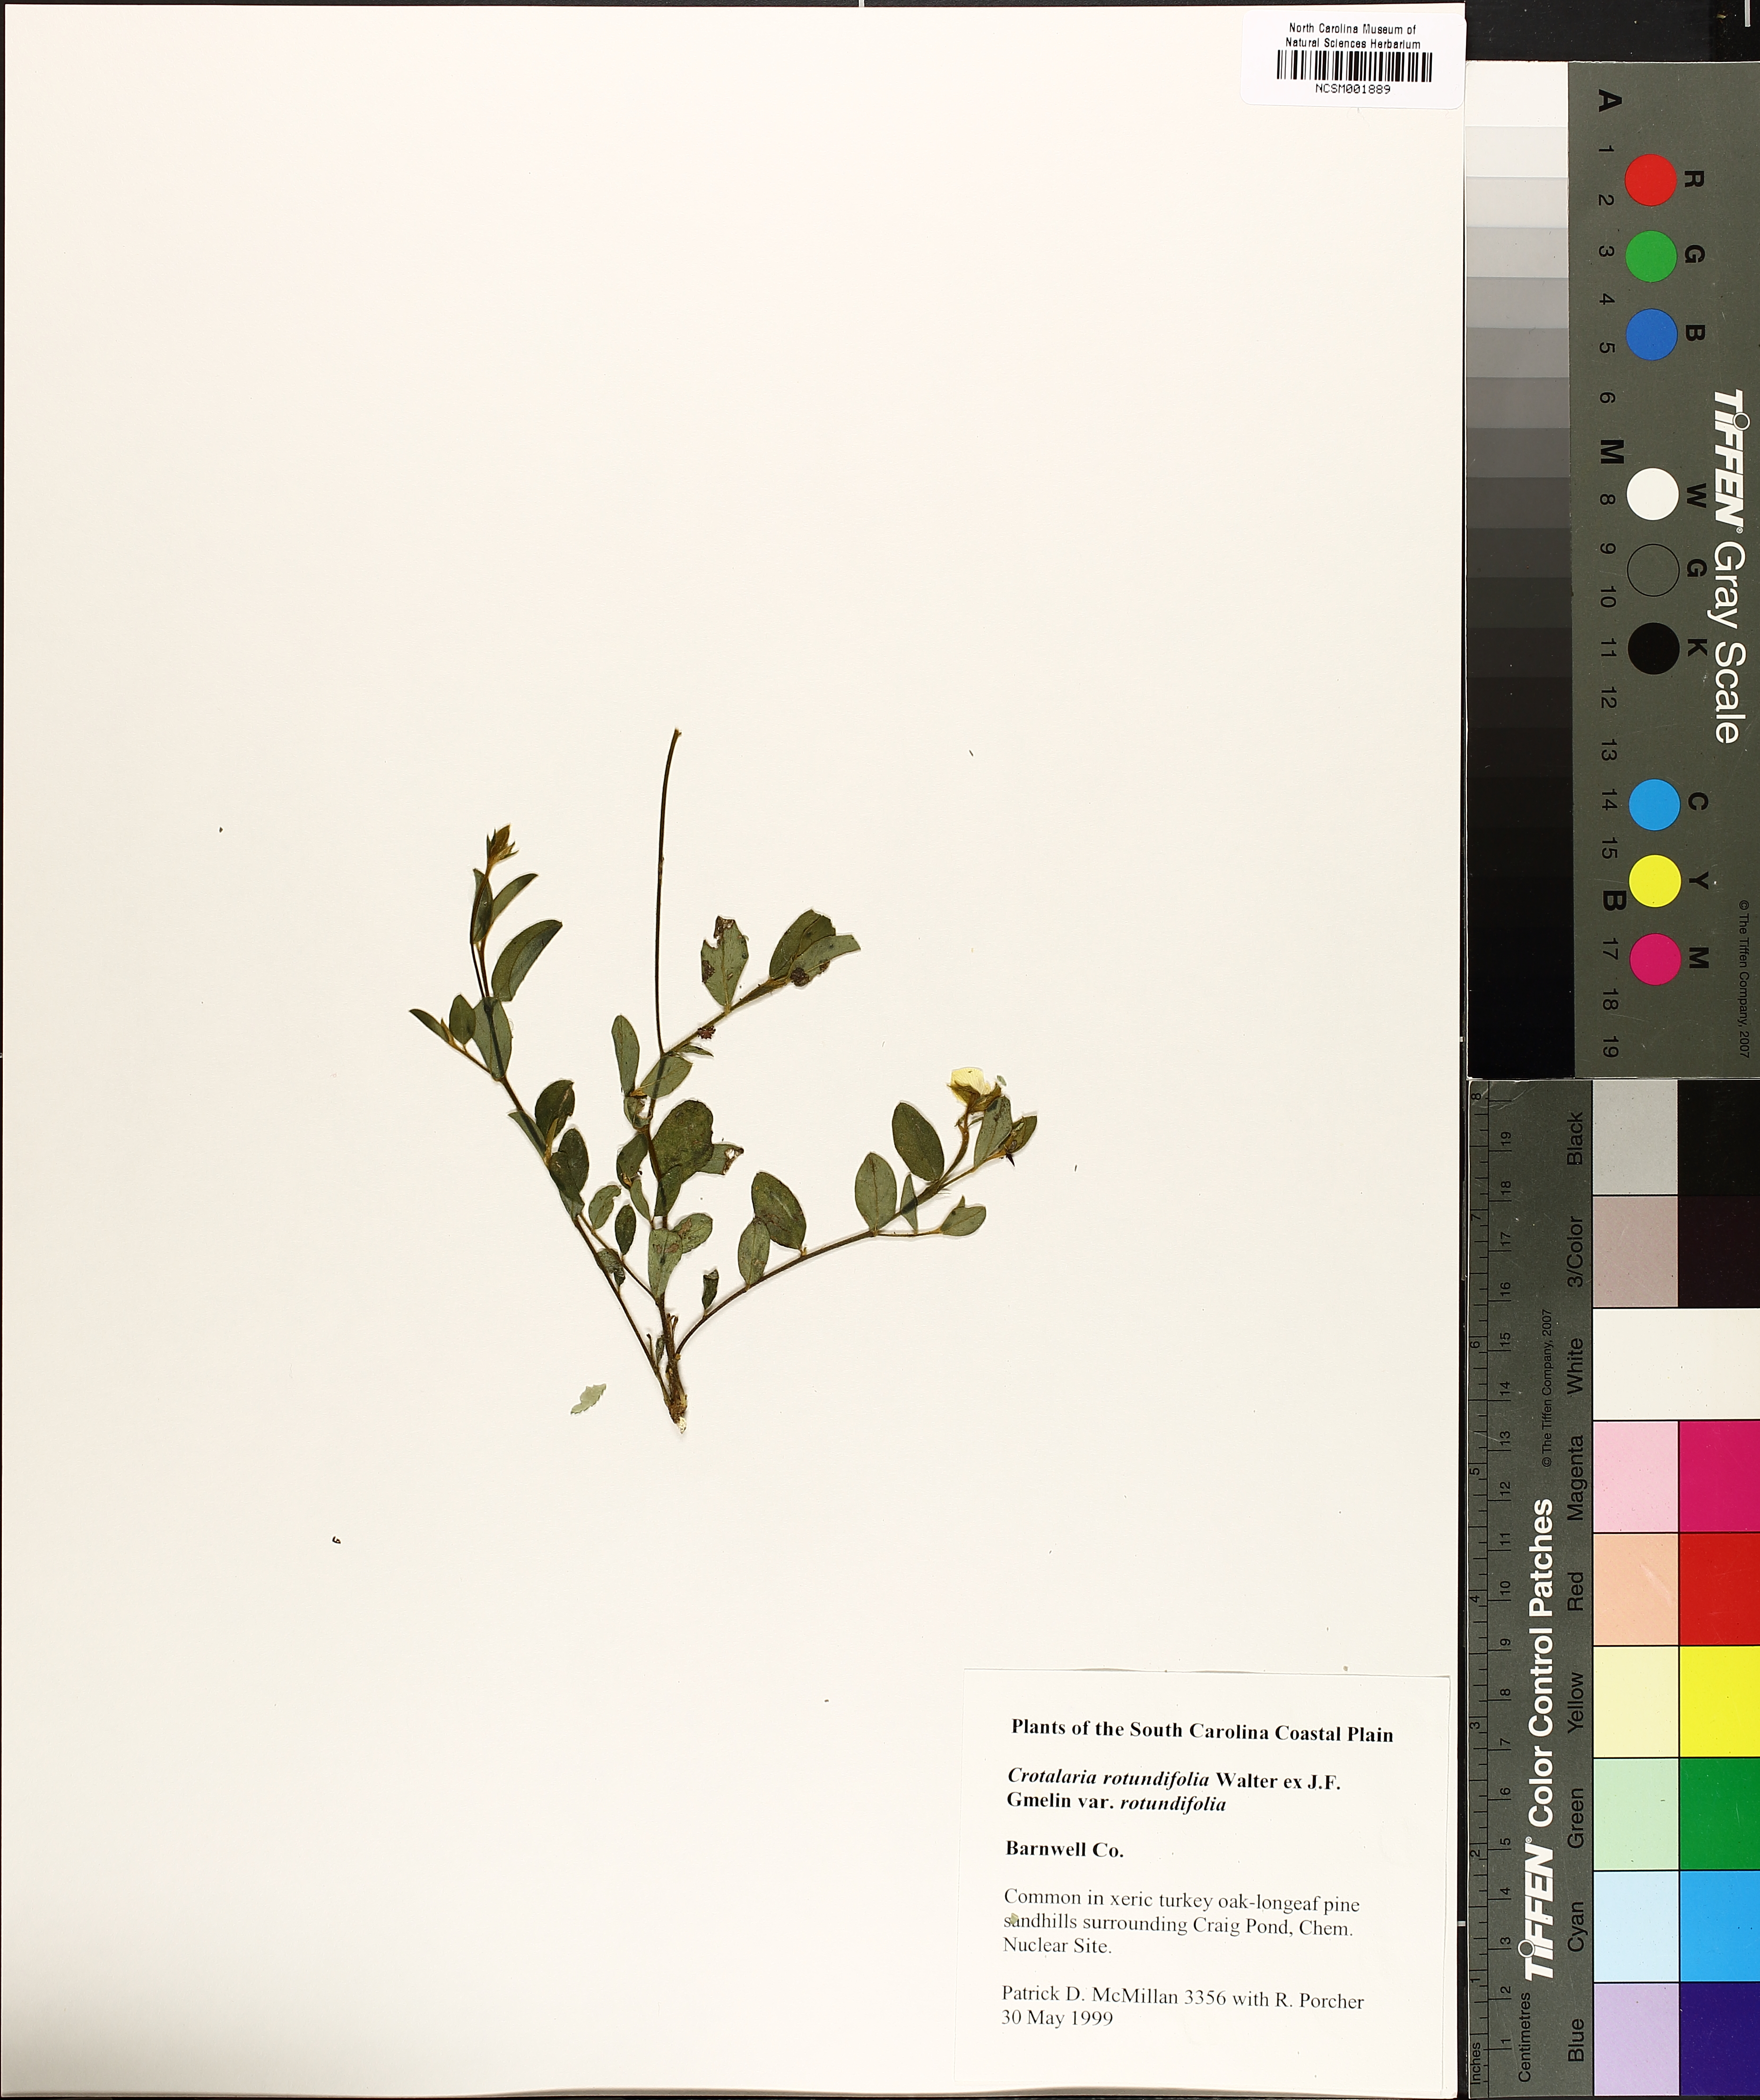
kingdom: Plantae
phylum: Tracheophyta
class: Magnoliopsida
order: Fabales
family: Fabaceae
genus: Crotalaria
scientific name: Crotalaria rotundifolia
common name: Prostrate rattlebox
